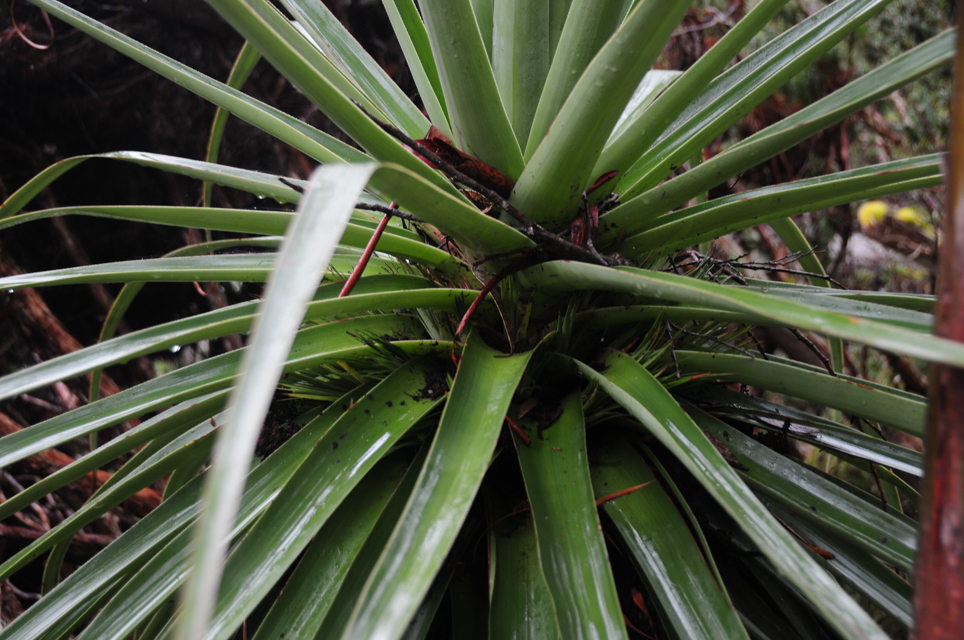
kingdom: Plantae
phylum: Tracheophyta
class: Magnoliopsida
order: Ericales
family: Ericaceae
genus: Dracophyllum
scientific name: Dracophyllum pandanifolium
